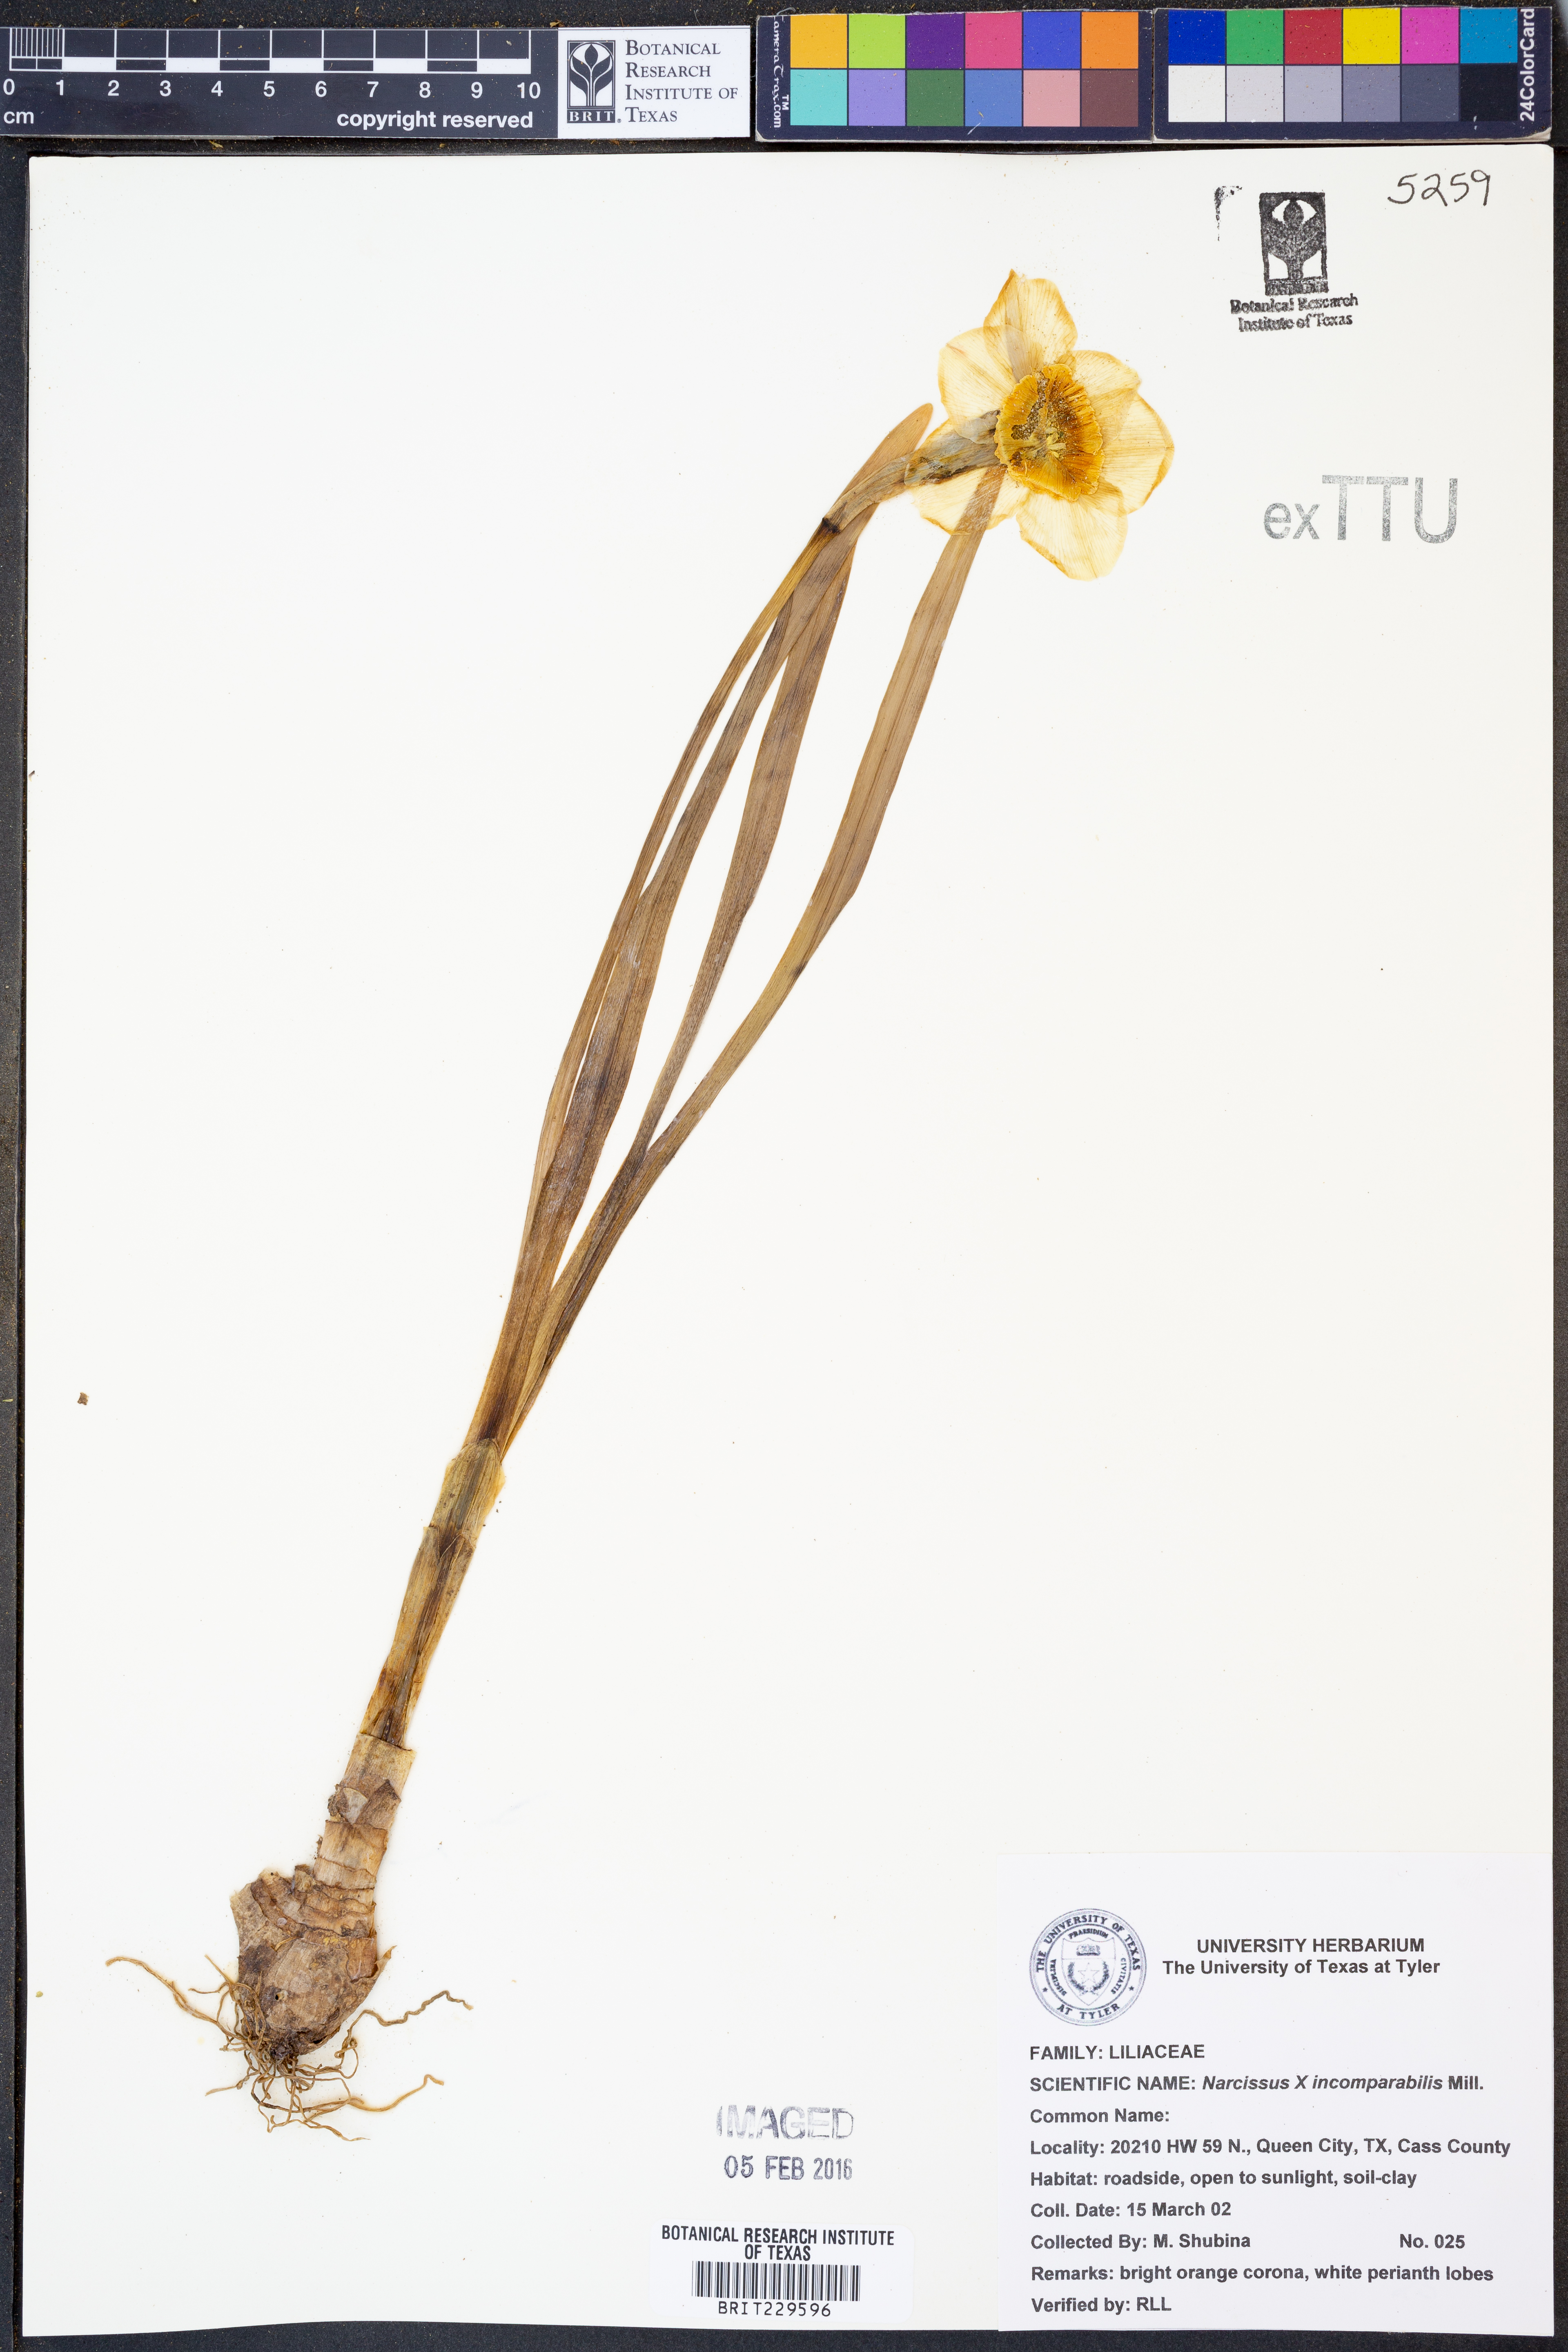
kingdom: Plantae
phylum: Tracheophyta
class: Liliopsida
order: Asparagales
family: Amaryllidaceae
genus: Narcissus
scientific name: Narcissus
